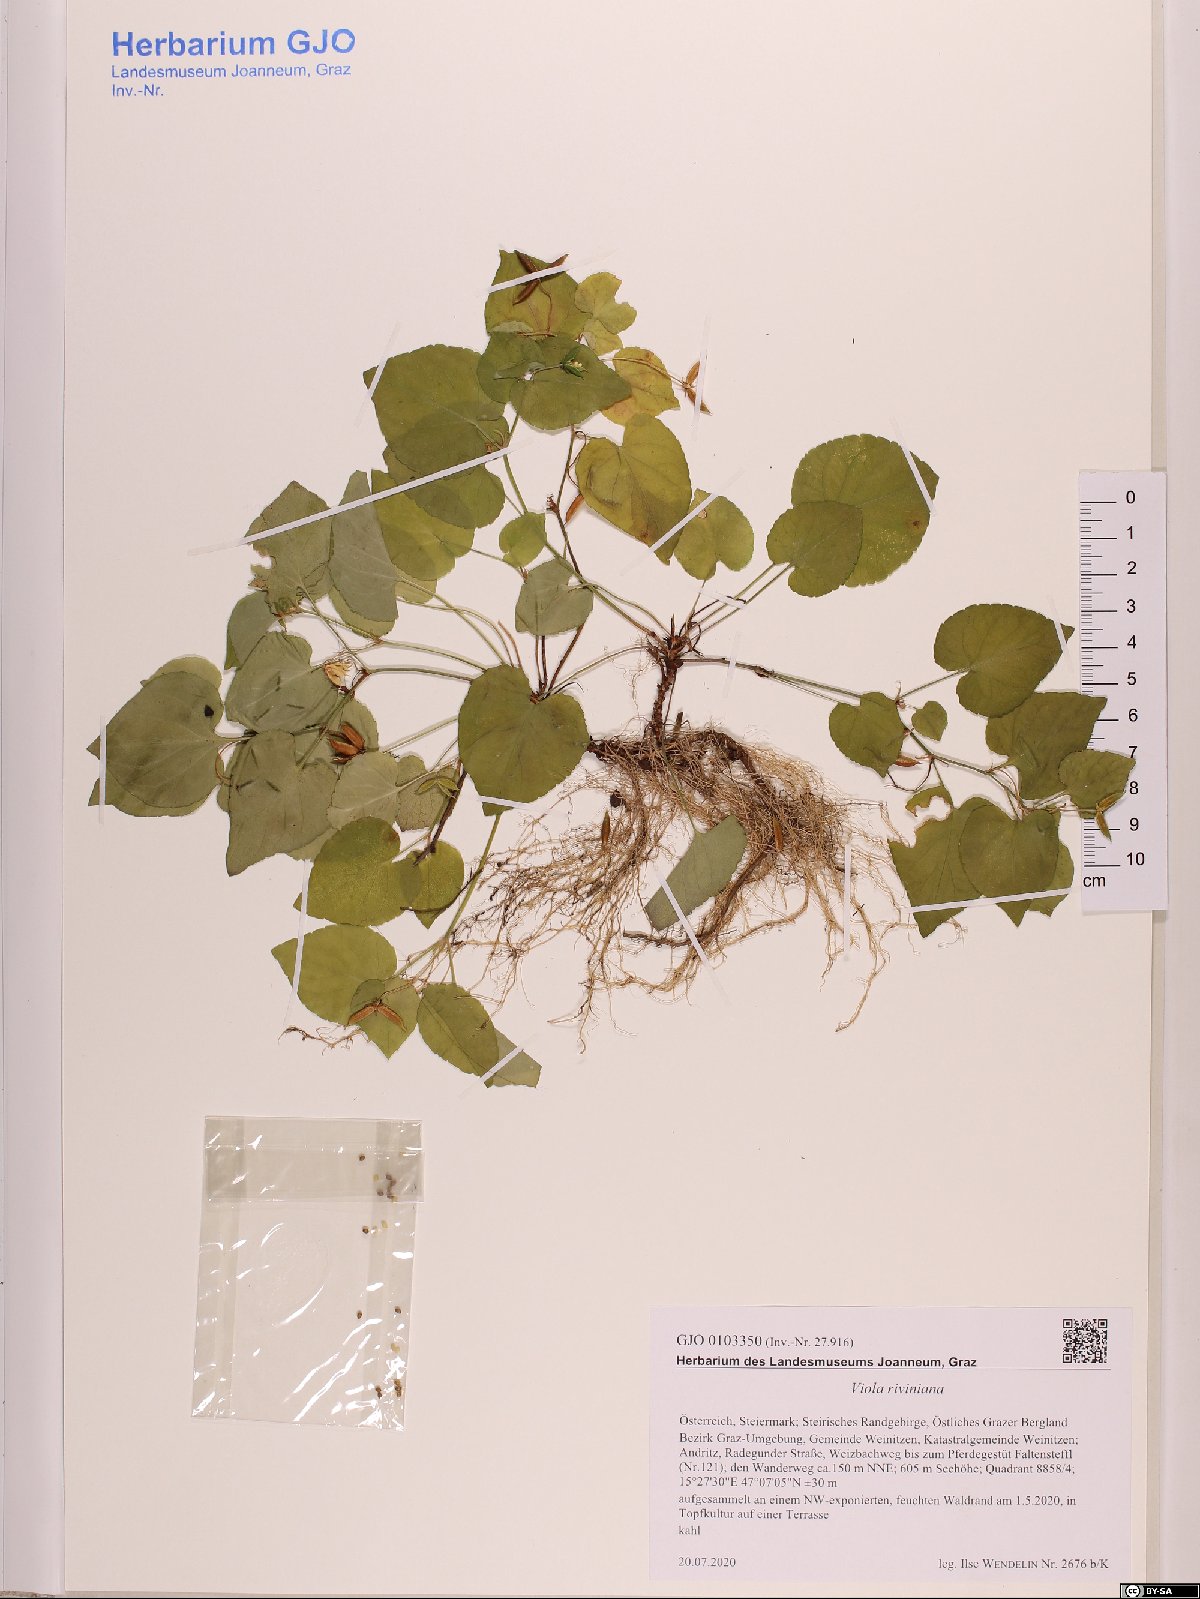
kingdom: Plantae
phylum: Tracheophyta
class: Magnoliopsida
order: Malpighiales
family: Violaceae
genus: Viola
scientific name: Viola riviniana
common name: Common dog-violet
